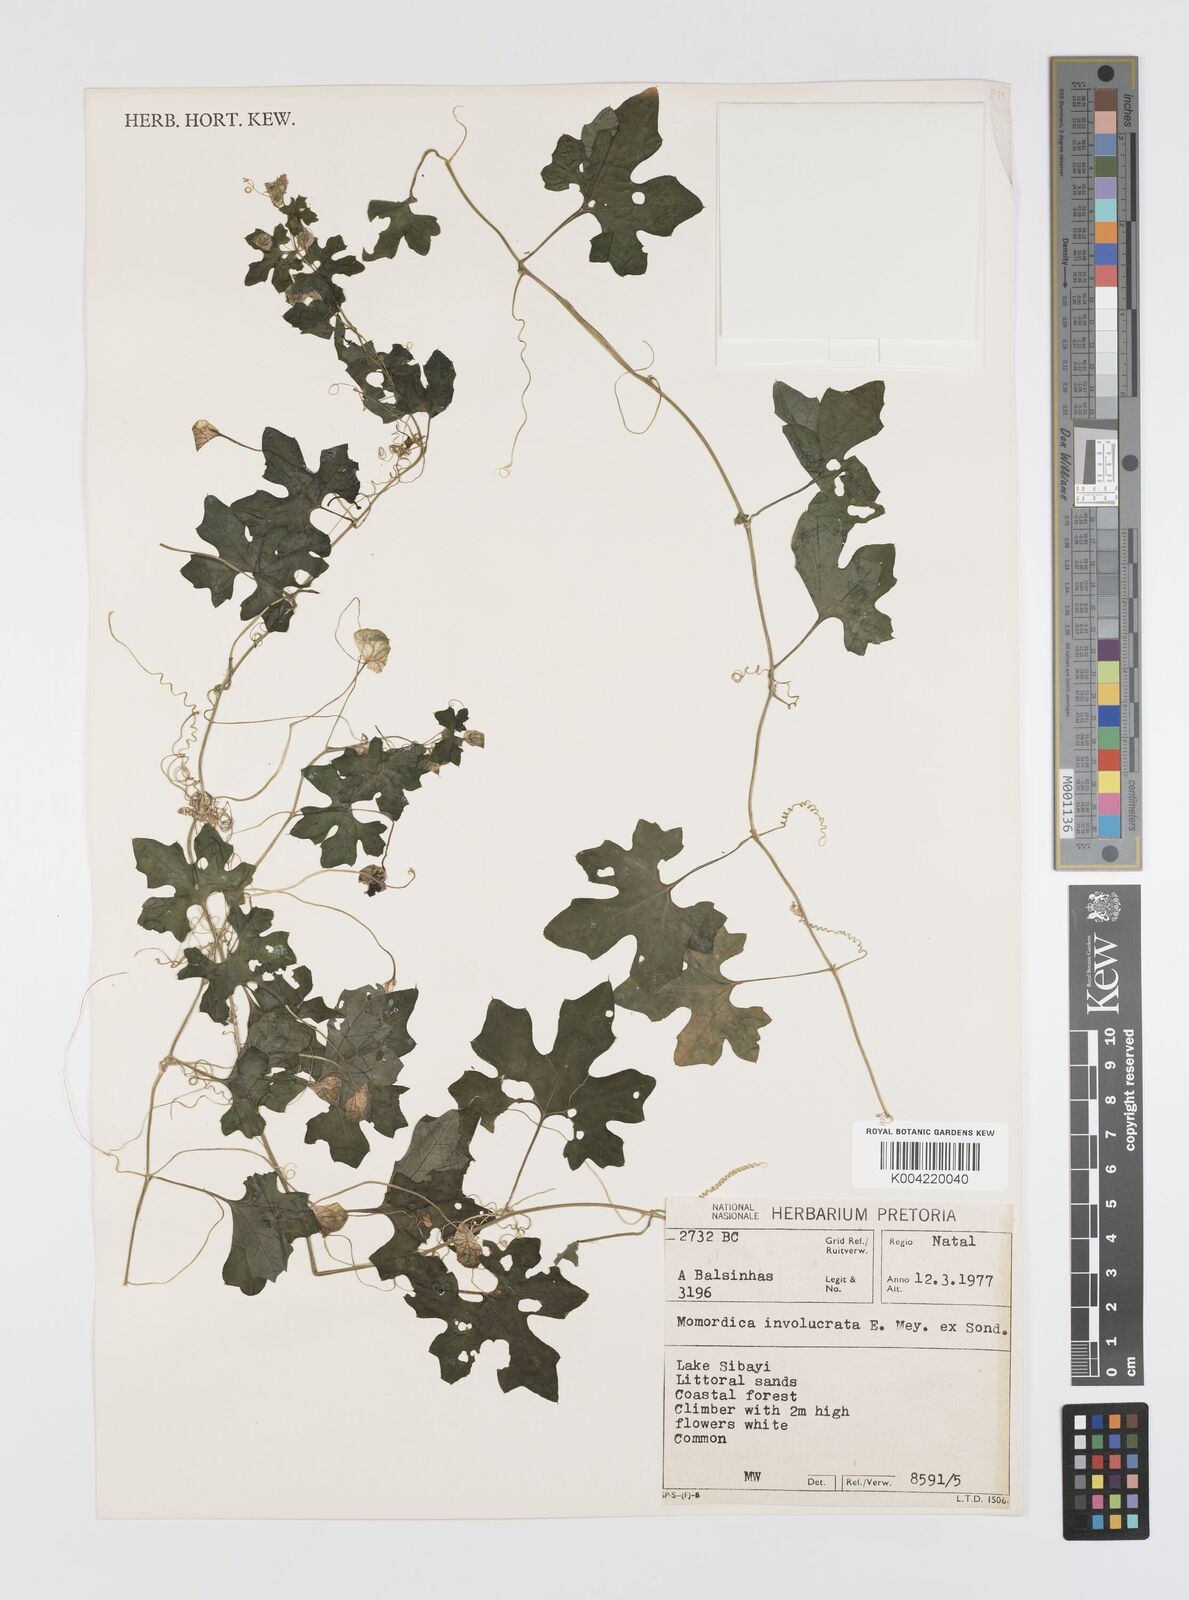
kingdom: Plantae
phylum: Tracheophyta
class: Magnoliopsida
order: Cucurbitales
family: Cucurbitaceae
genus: Momordica
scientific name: Momordica balsamina
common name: Southern balsampear
